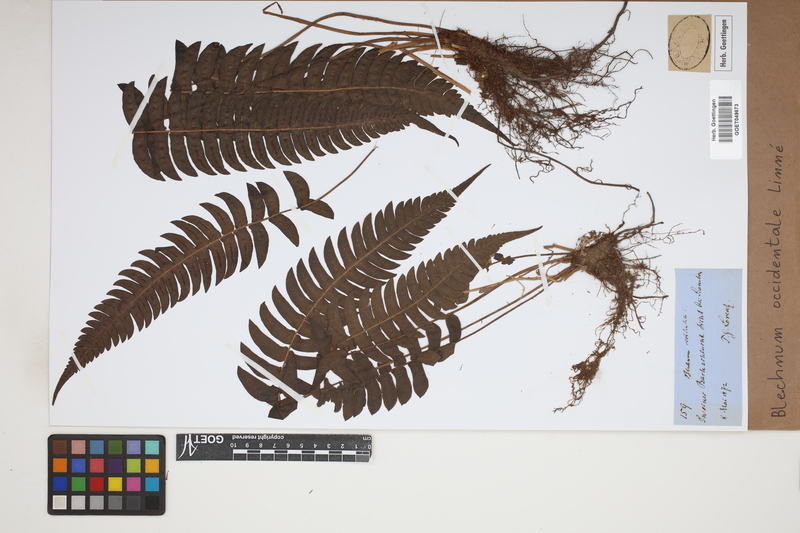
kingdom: Plantae
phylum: Tracheophyta
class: Polypodiopsida
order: Polypodiales
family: Blechnaceae
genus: Blechnum
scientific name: Blechnum occidentale
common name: Hammock fern
